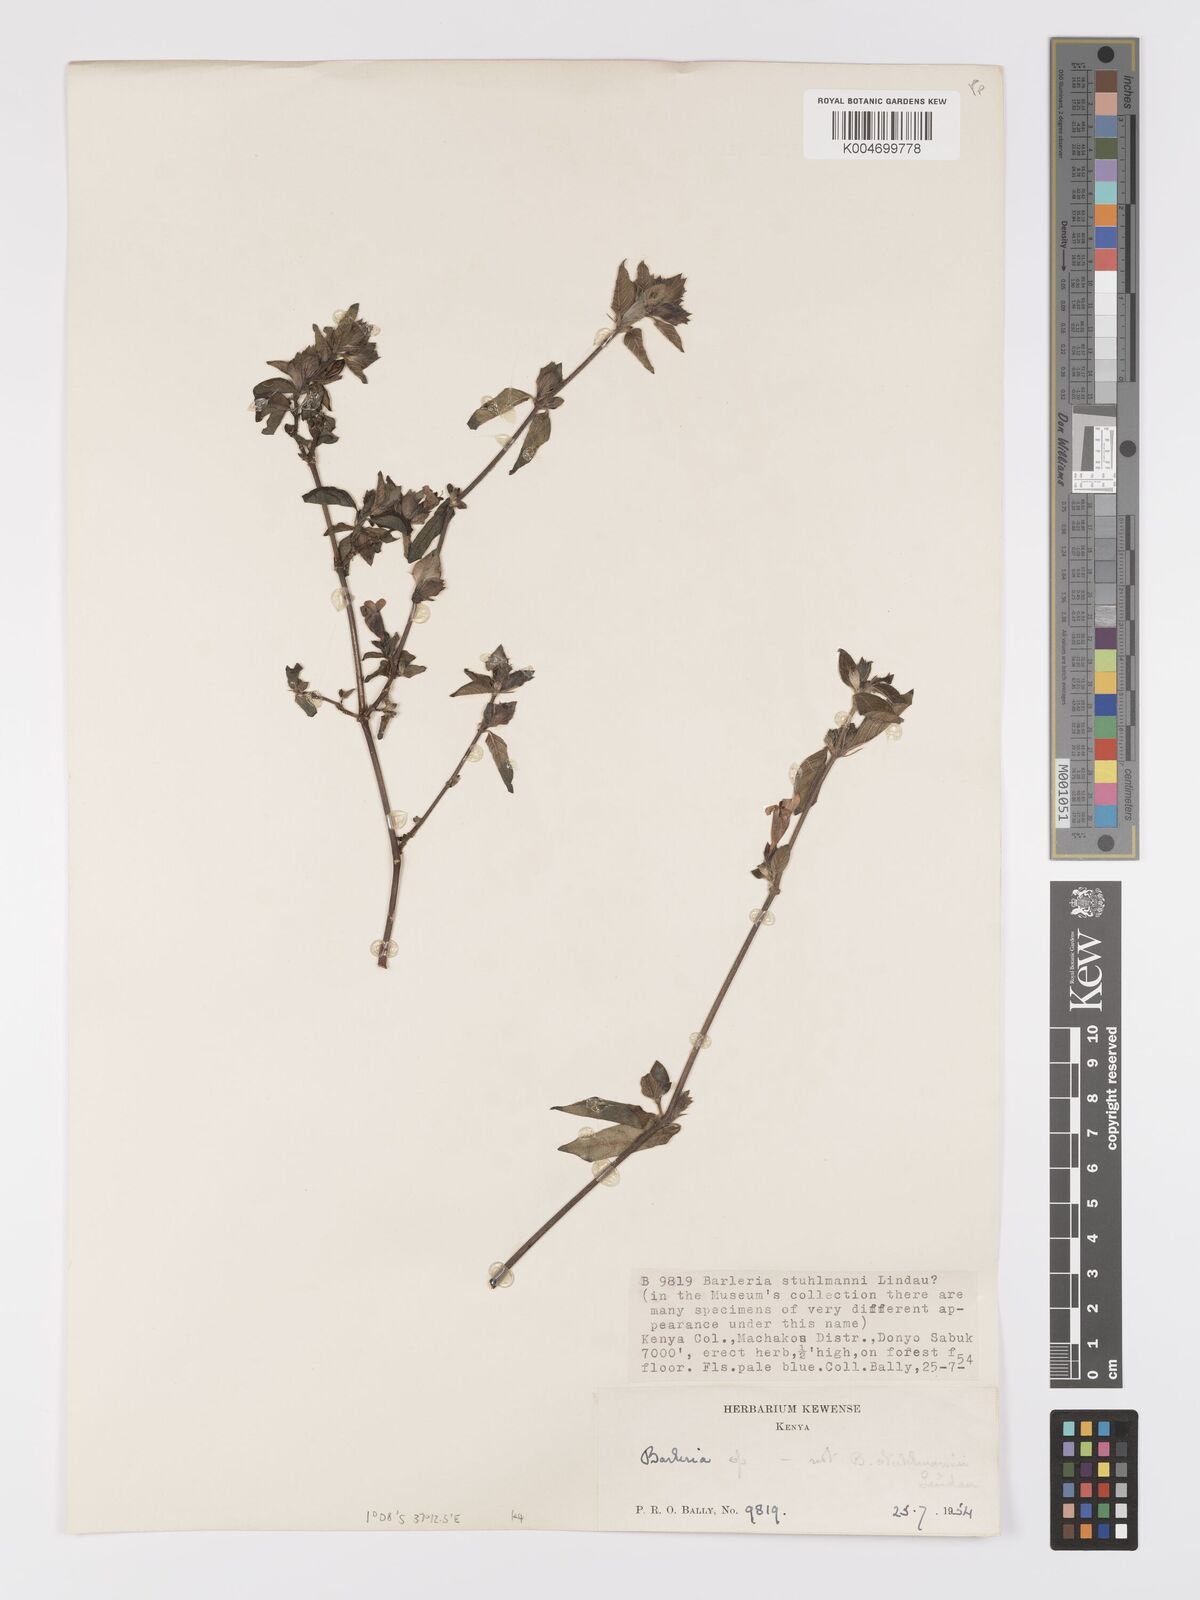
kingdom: Plantae
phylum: Tracheophyta
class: Magnoliopsida
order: Lamiales
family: Acanthaceae
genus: Barleria
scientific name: Barleria ventricosa
